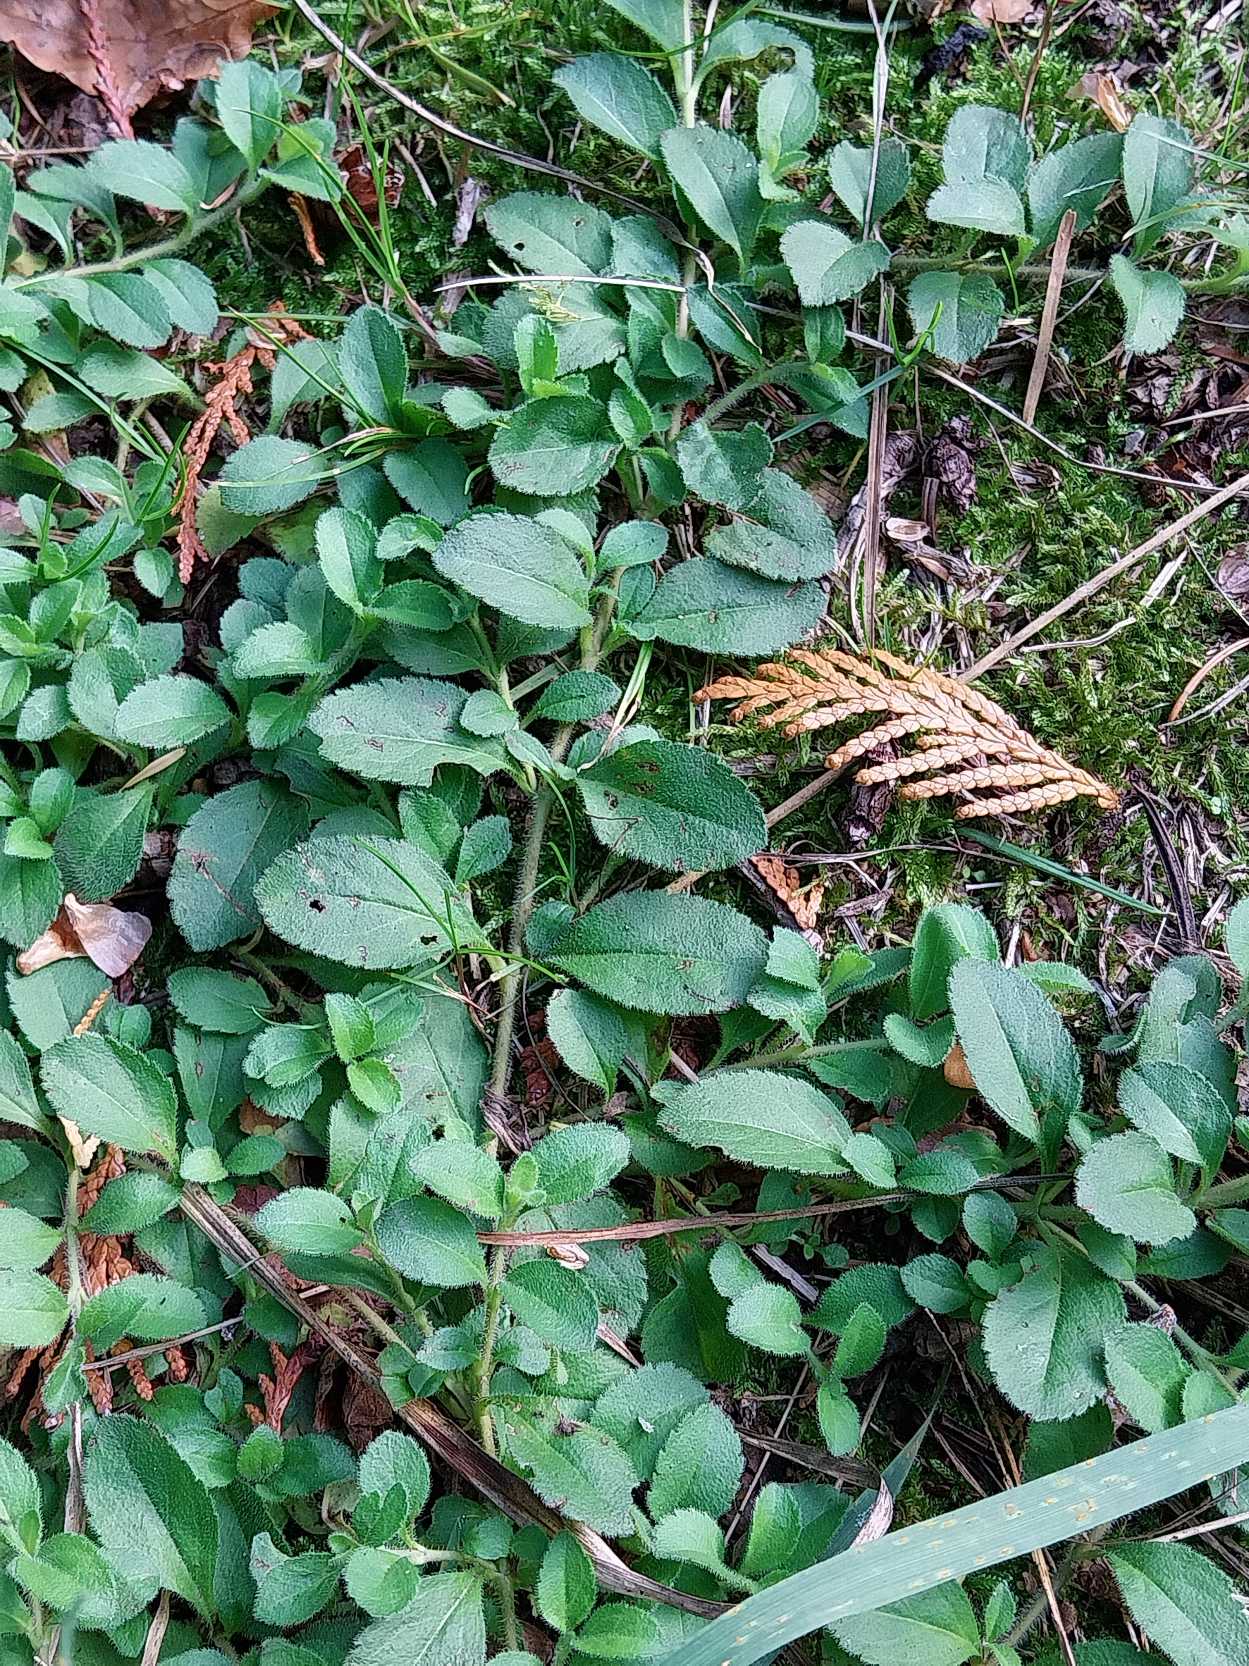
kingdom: Plantae
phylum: Tracheophyta
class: Magnoliopsida
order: Lamiales
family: Plantaginaceae
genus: Veronica
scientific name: Veronica officinalis
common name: Læge-ærenpris
